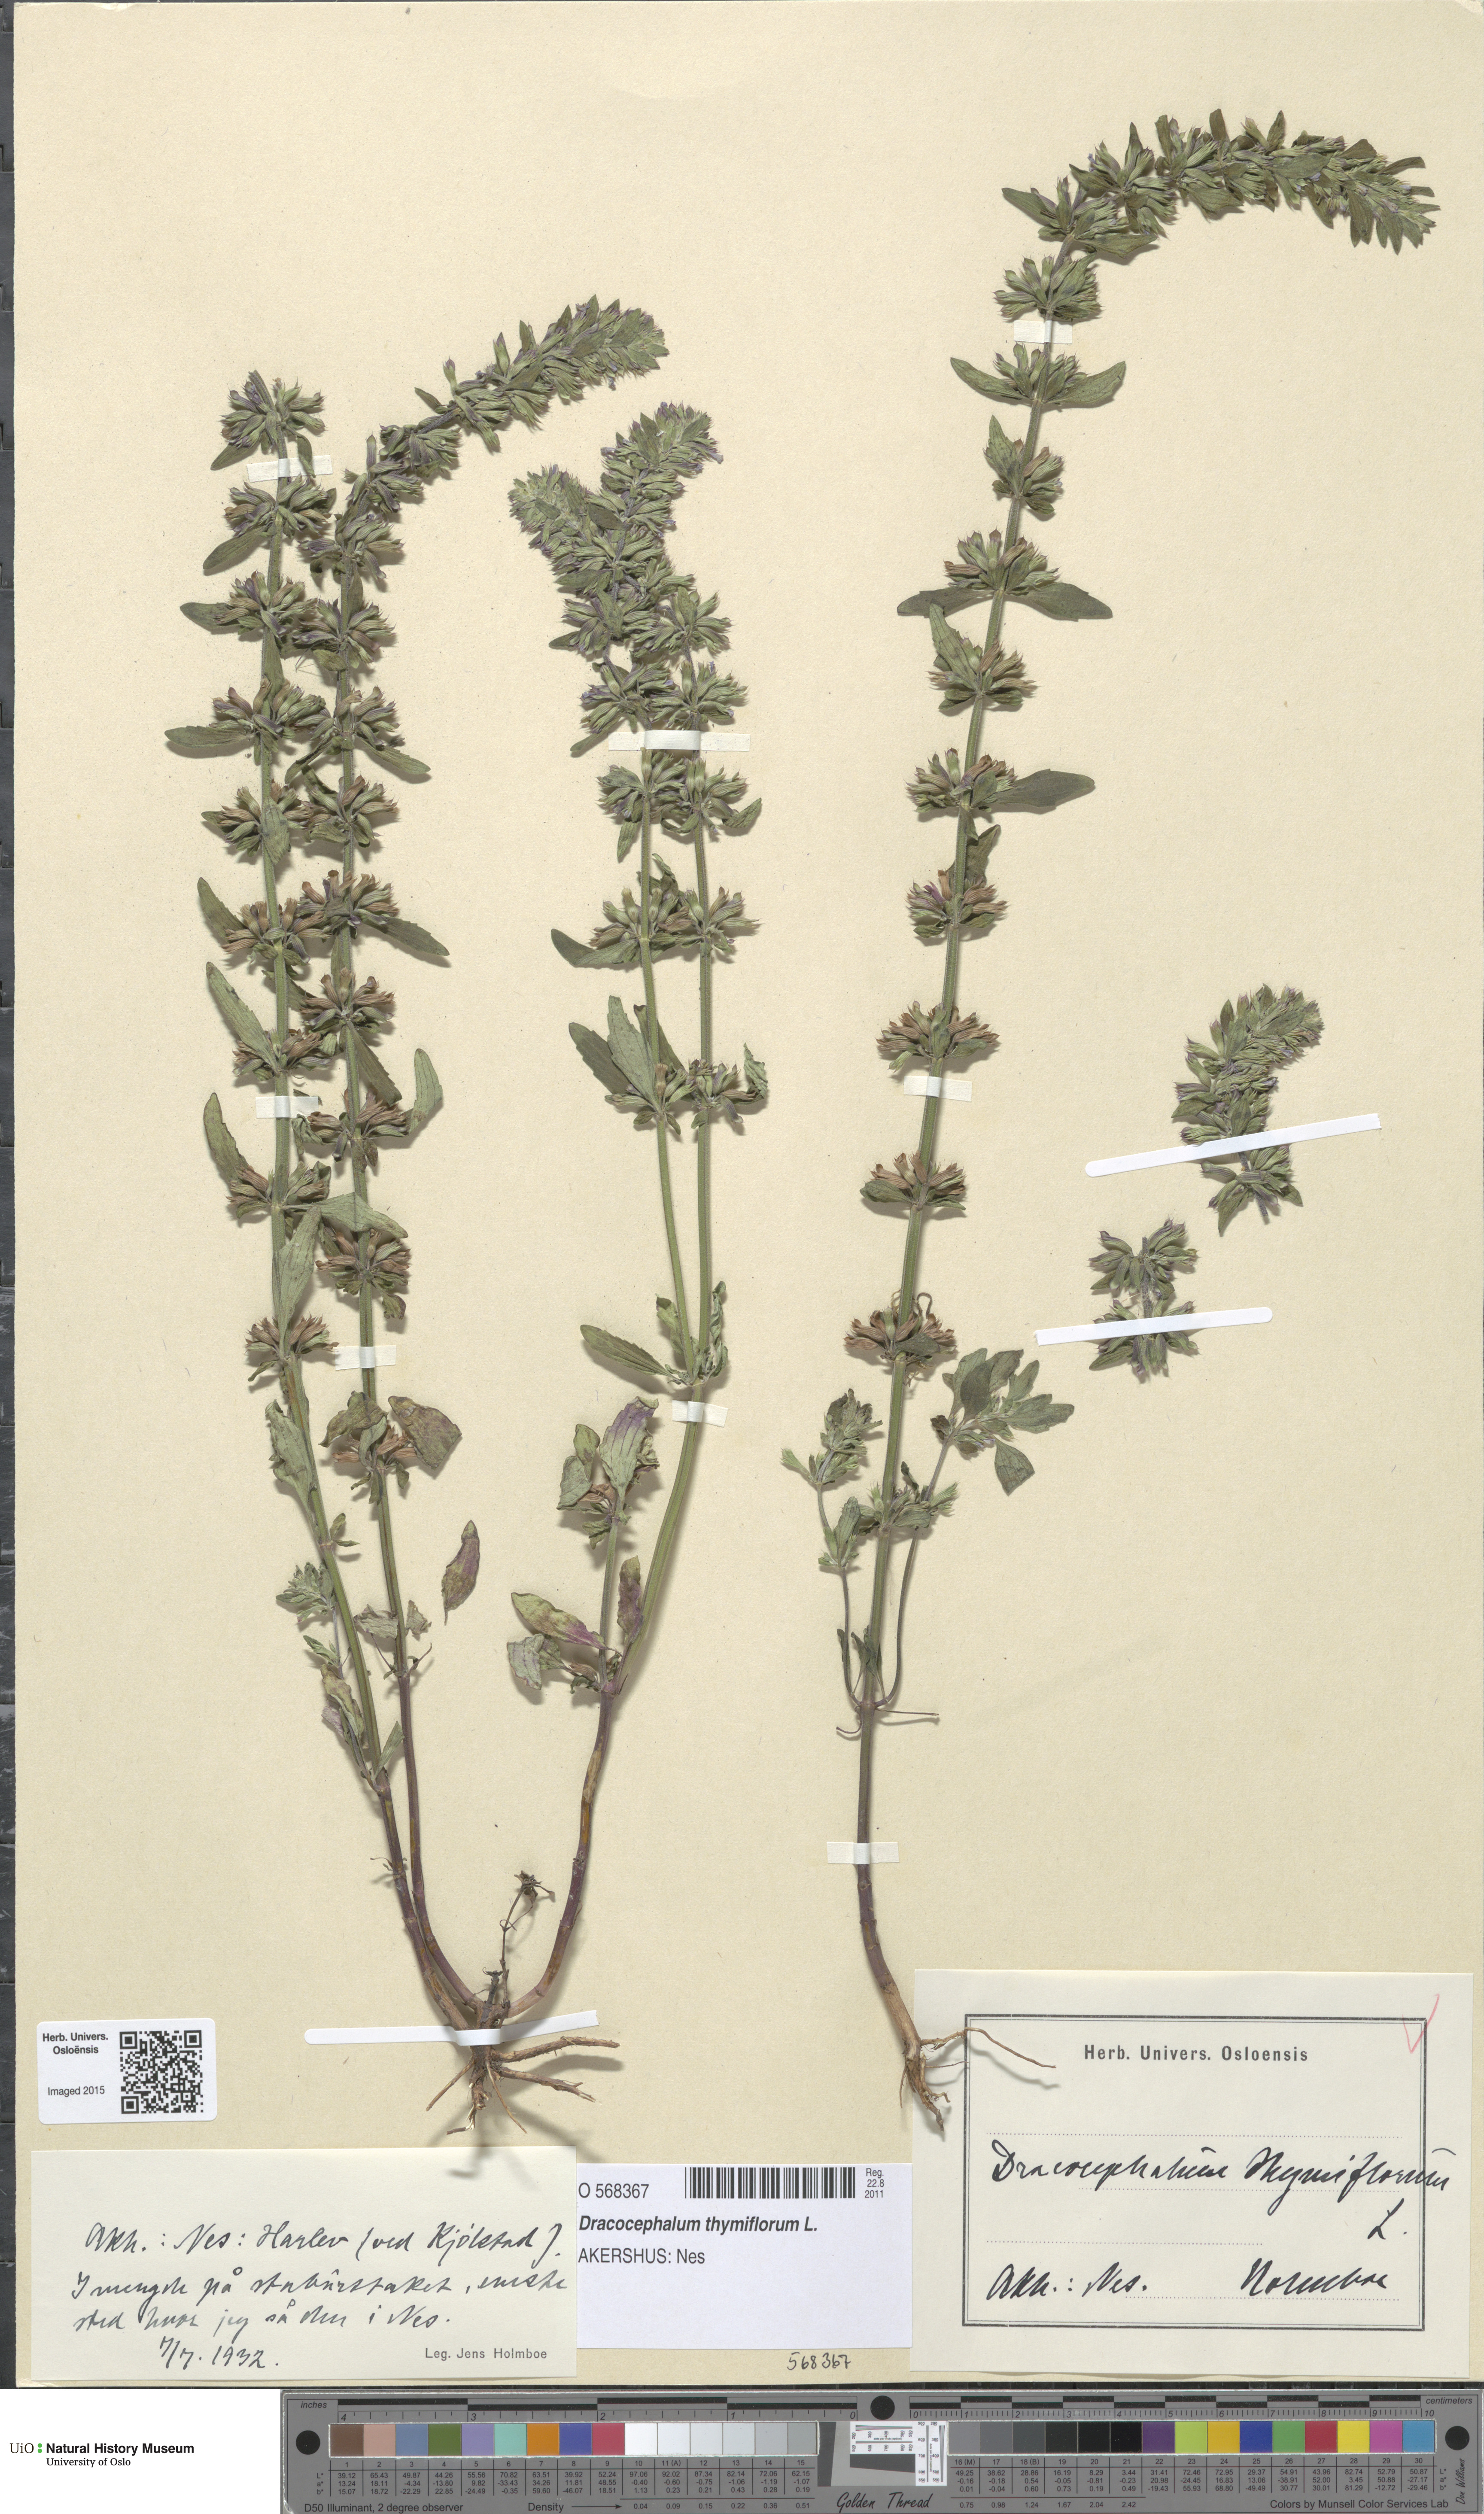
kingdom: Plantae
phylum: Tracheophyta
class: Magnoliopsida
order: Lamiales
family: Lamiaceae
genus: Dracocephalum
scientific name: Dracocephalum thymiflorum
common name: Thymeleaf dragonhead
